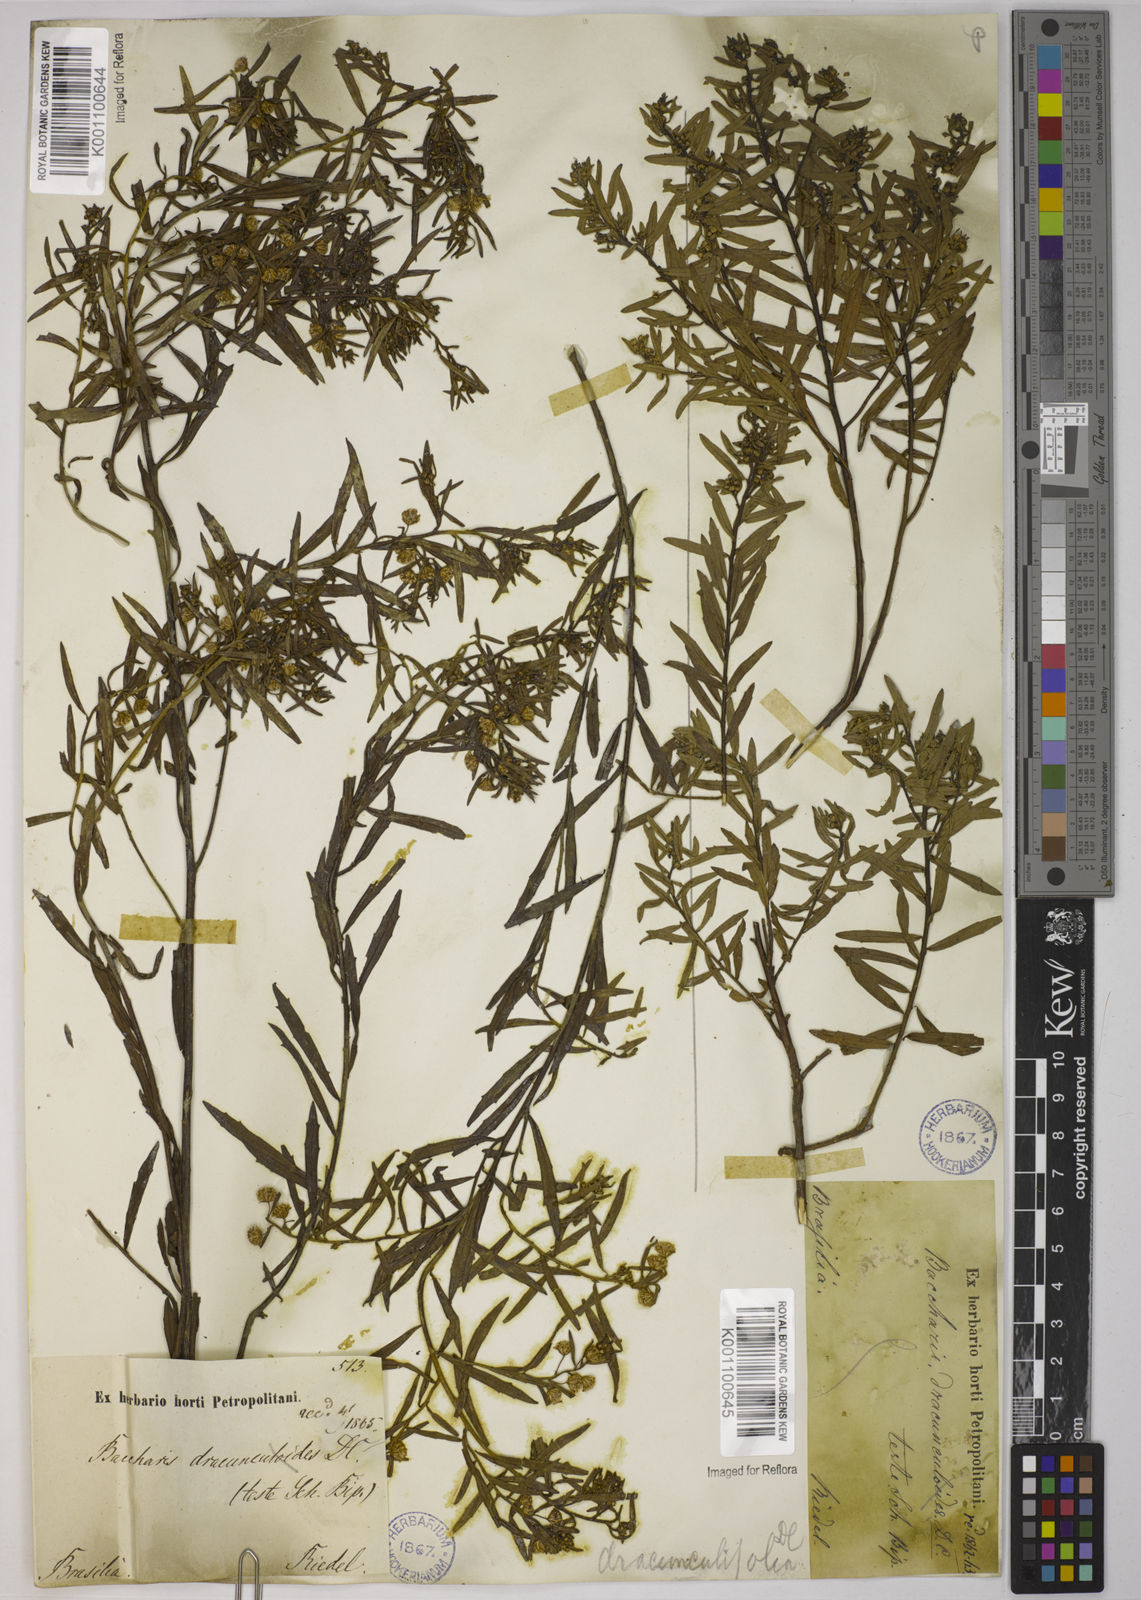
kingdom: Plantae
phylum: Tracheophyta
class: Magnoliopsida
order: Asterales
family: Asteraceae
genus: Baccharis
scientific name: Baccharis dracunculifolia
